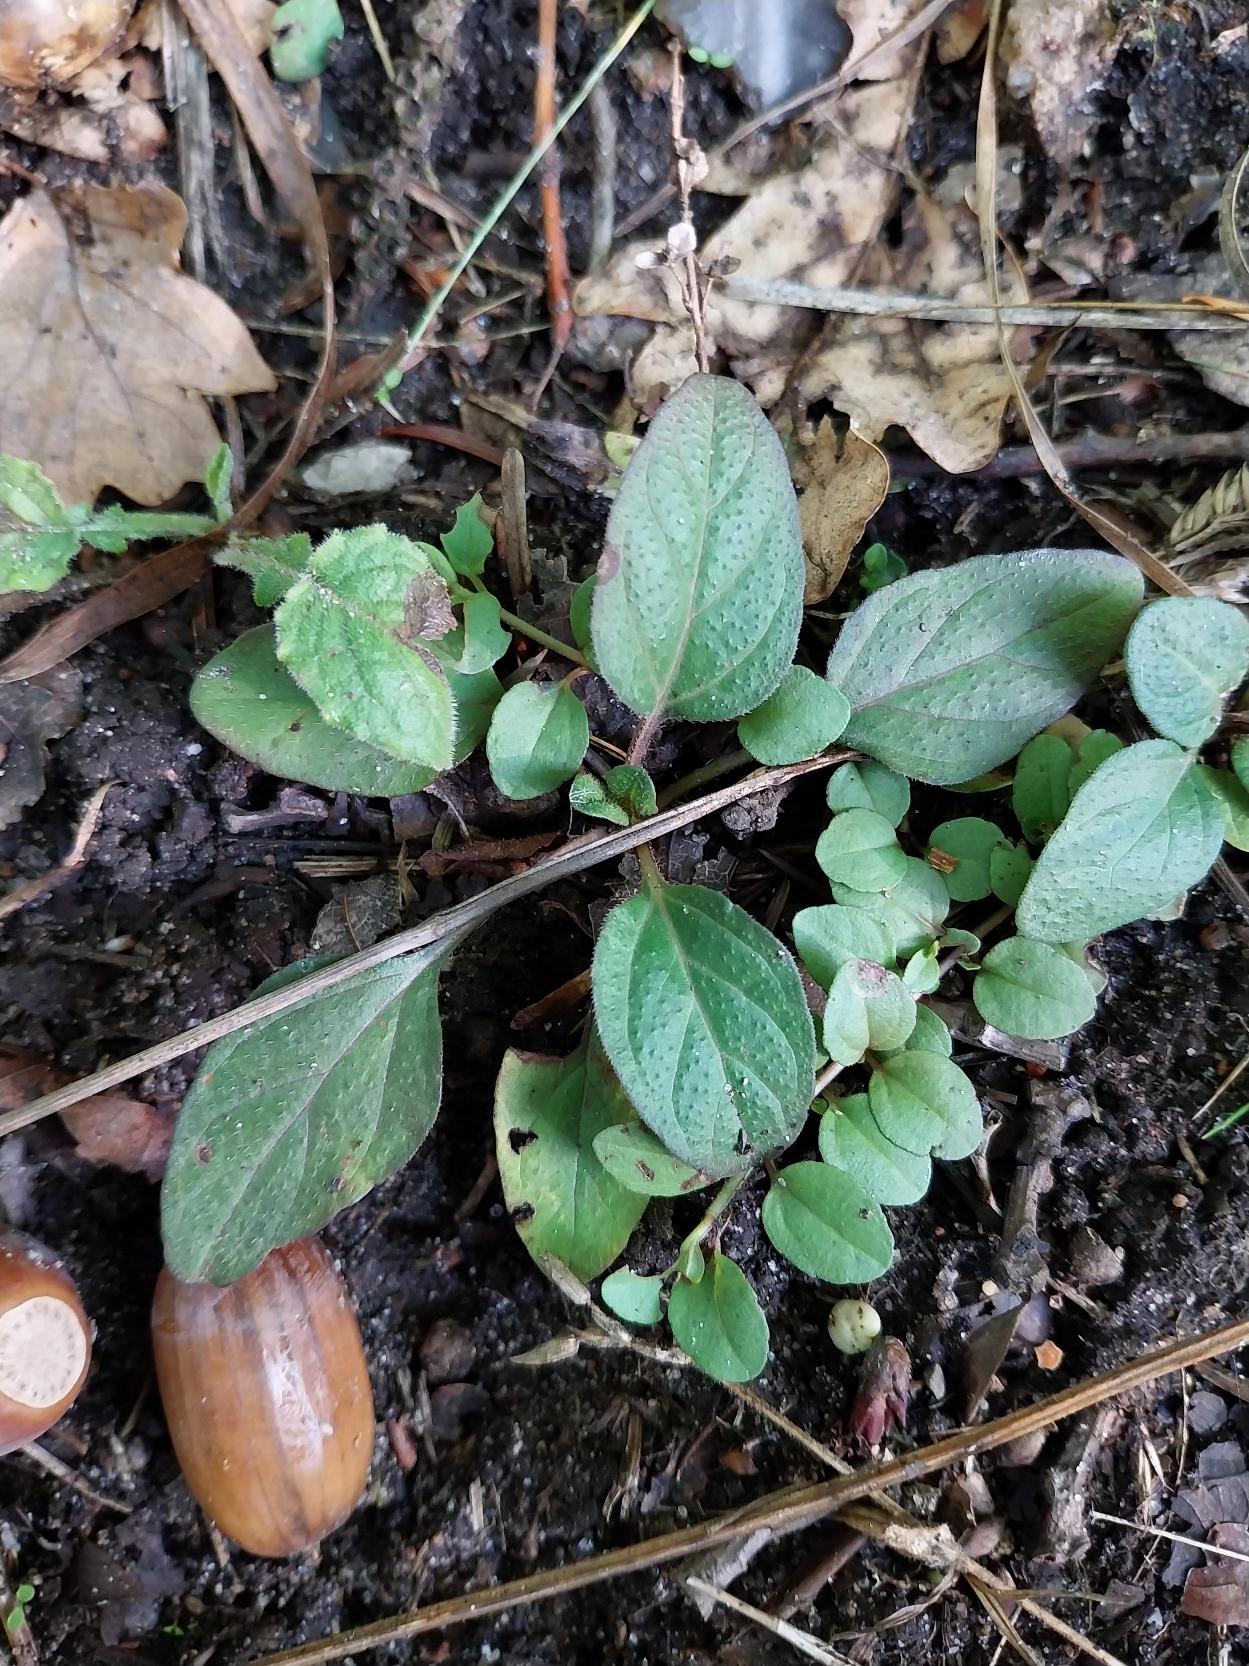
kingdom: Plantae
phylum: Tracheophyta
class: Magnoliopsida
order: Lamiales
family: Lamiaceae
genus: Prunella
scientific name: Prunella vulgaris
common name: Almindelig brunelle
